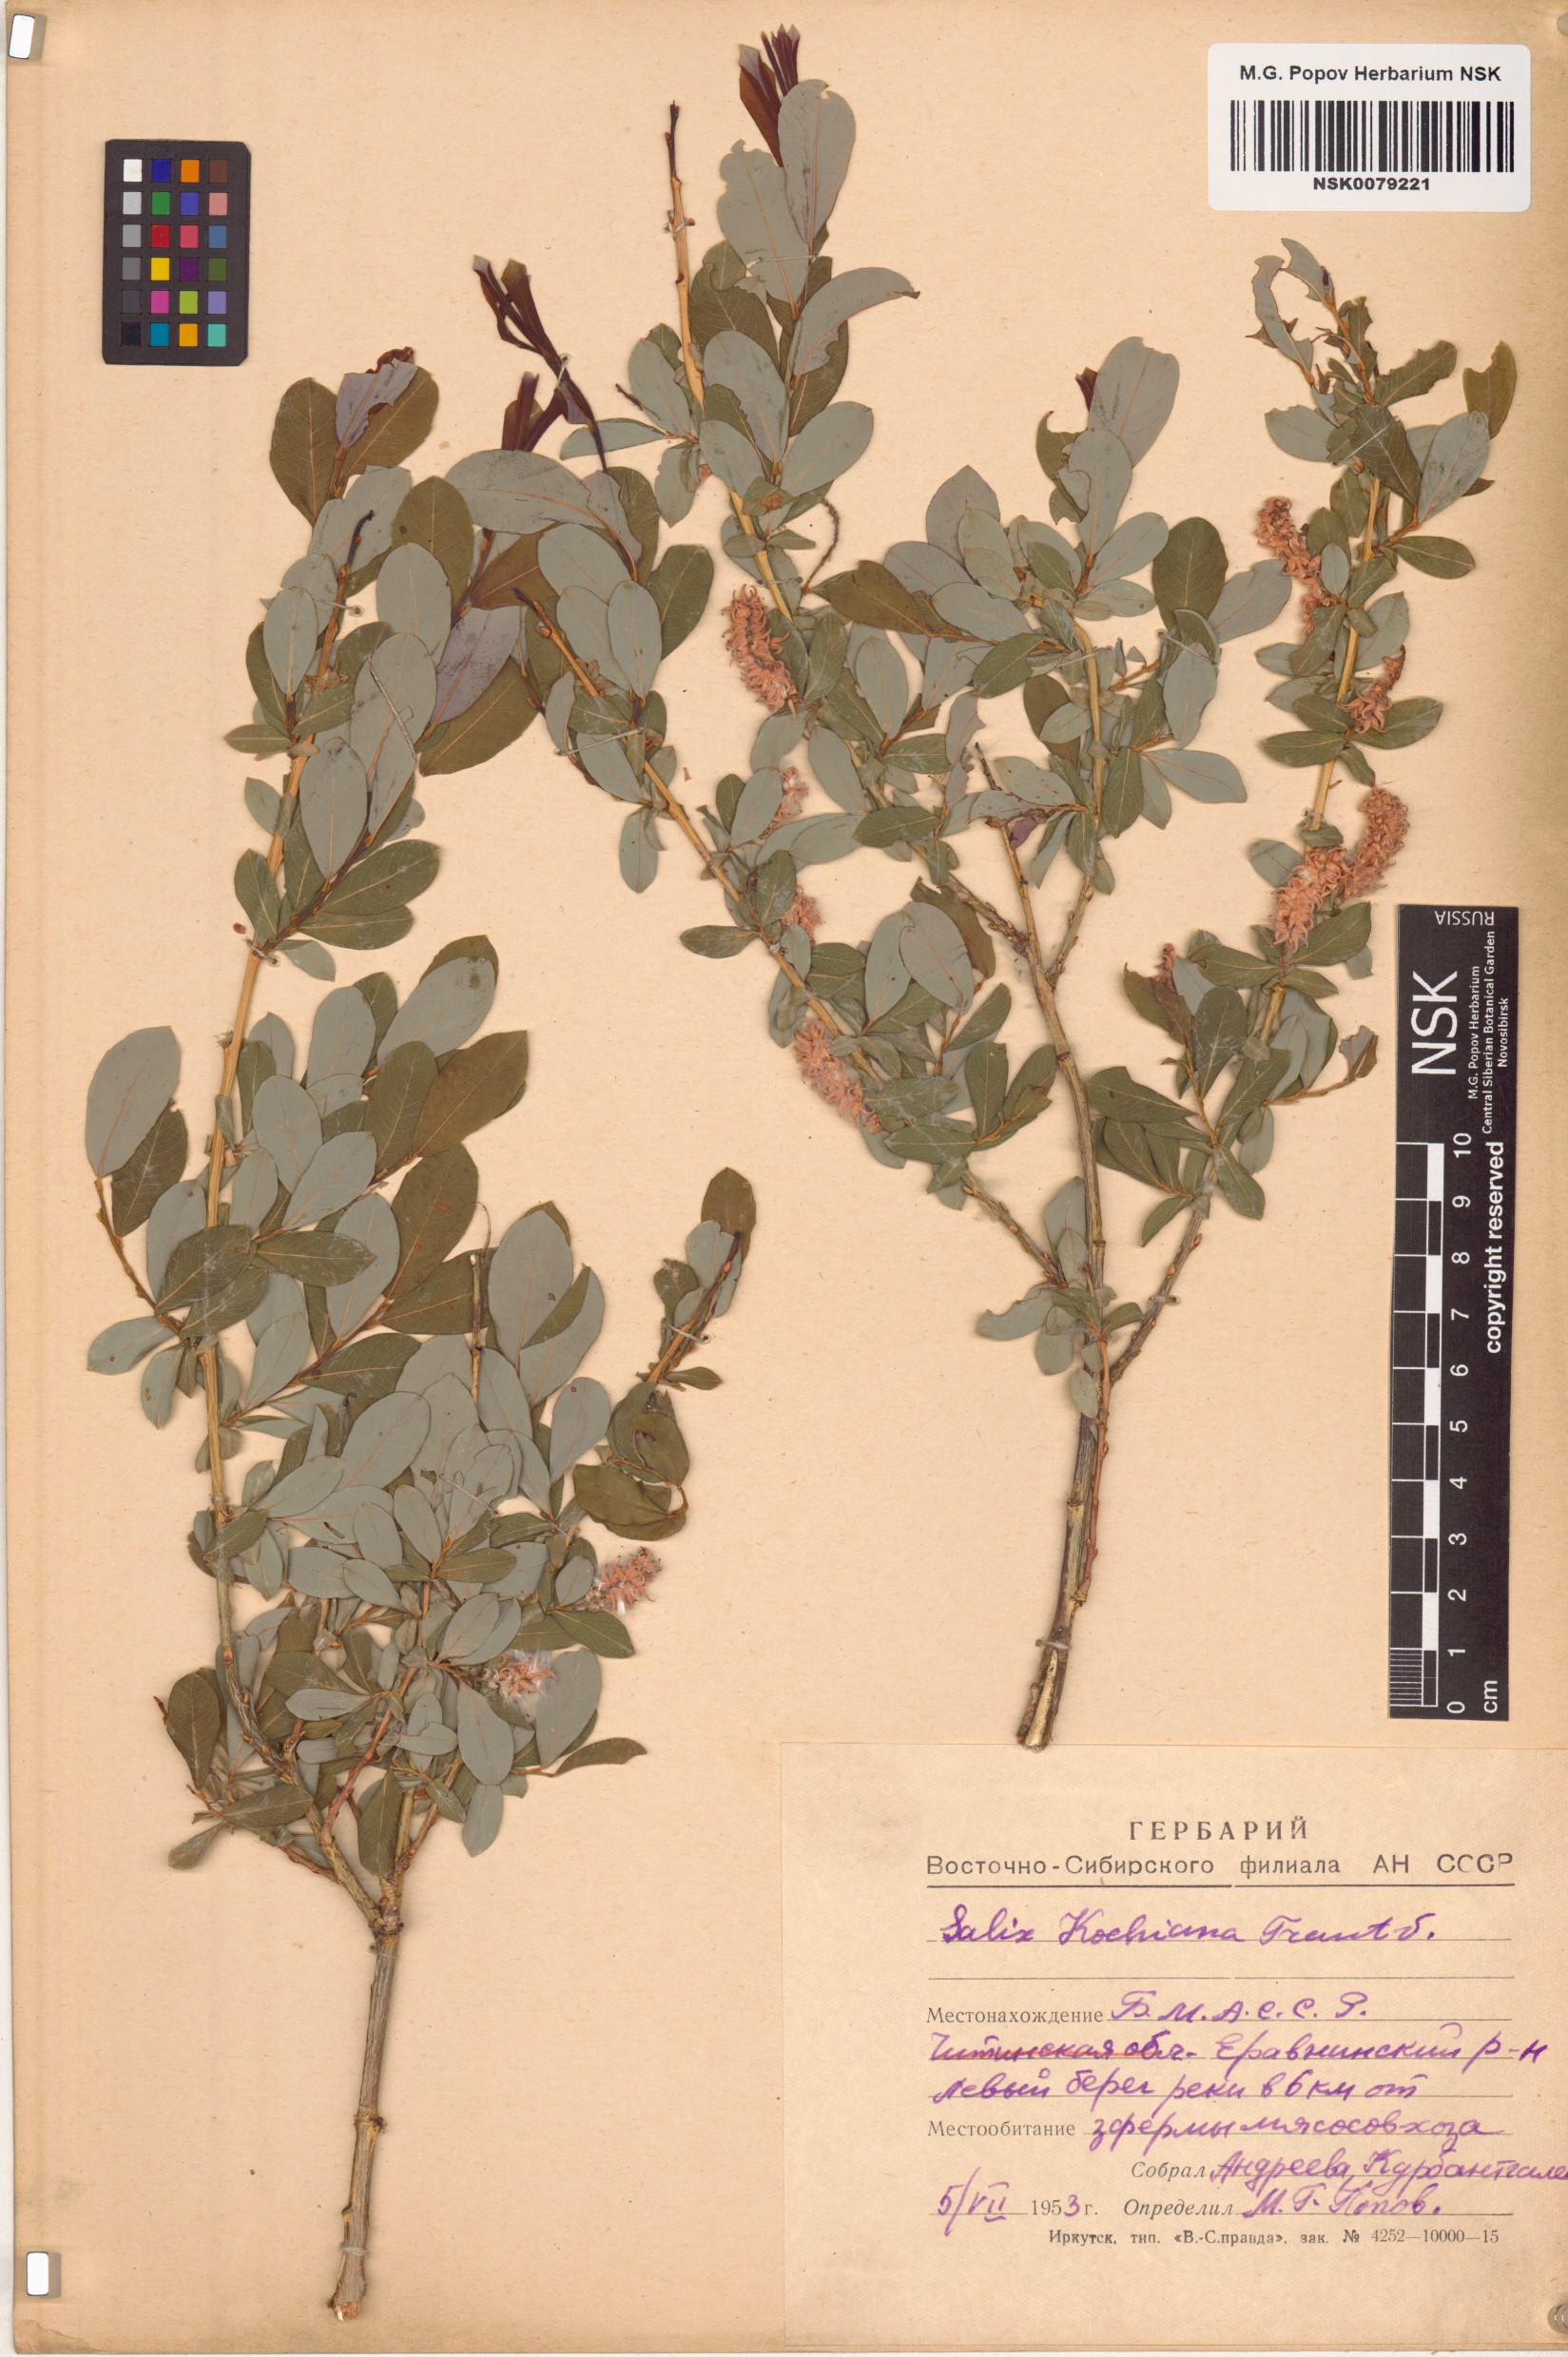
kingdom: Plantae
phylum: Tracheophyta
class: Magnoliopsida
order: Malpighiales
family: Salicaceae
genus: Salix
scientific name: Salix kochiana
